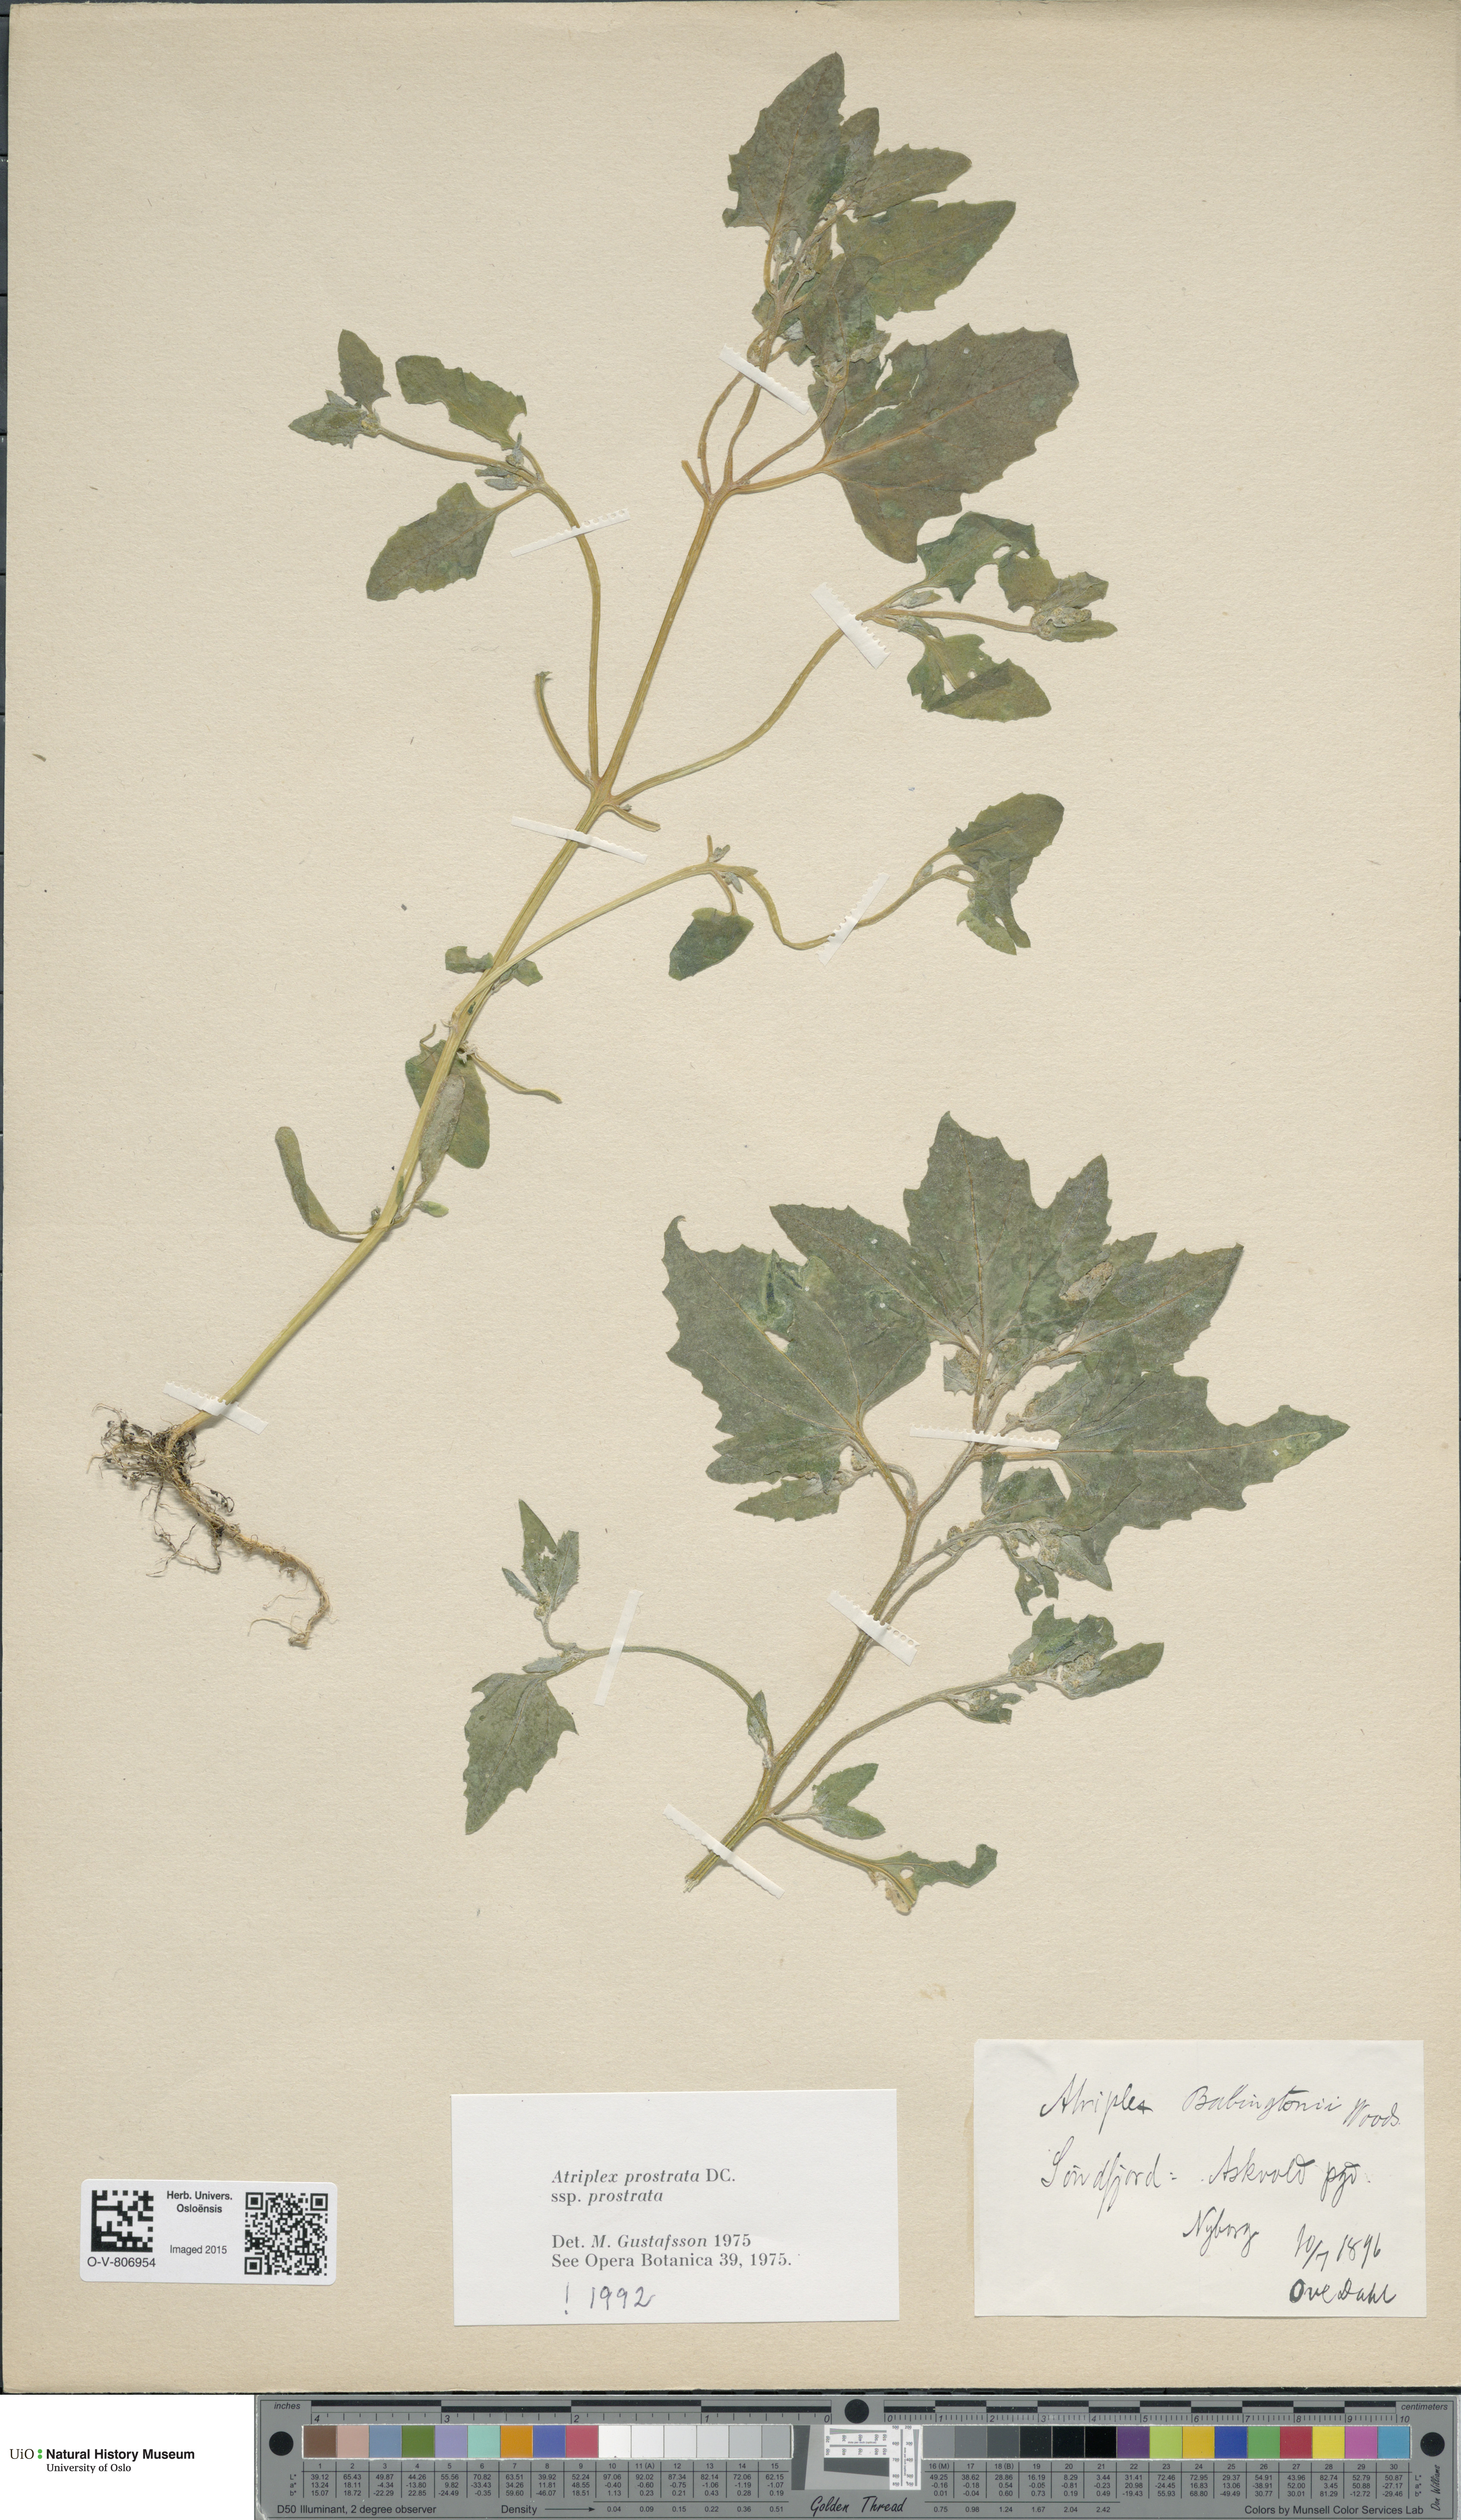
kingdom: Plantae
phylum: Tracheophyta
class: Magnoliopsida
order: Caryophyllales
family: Amaranthaceae
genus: Atriplex
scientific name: Atriplex prostrata
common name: Spear-leaved orache
